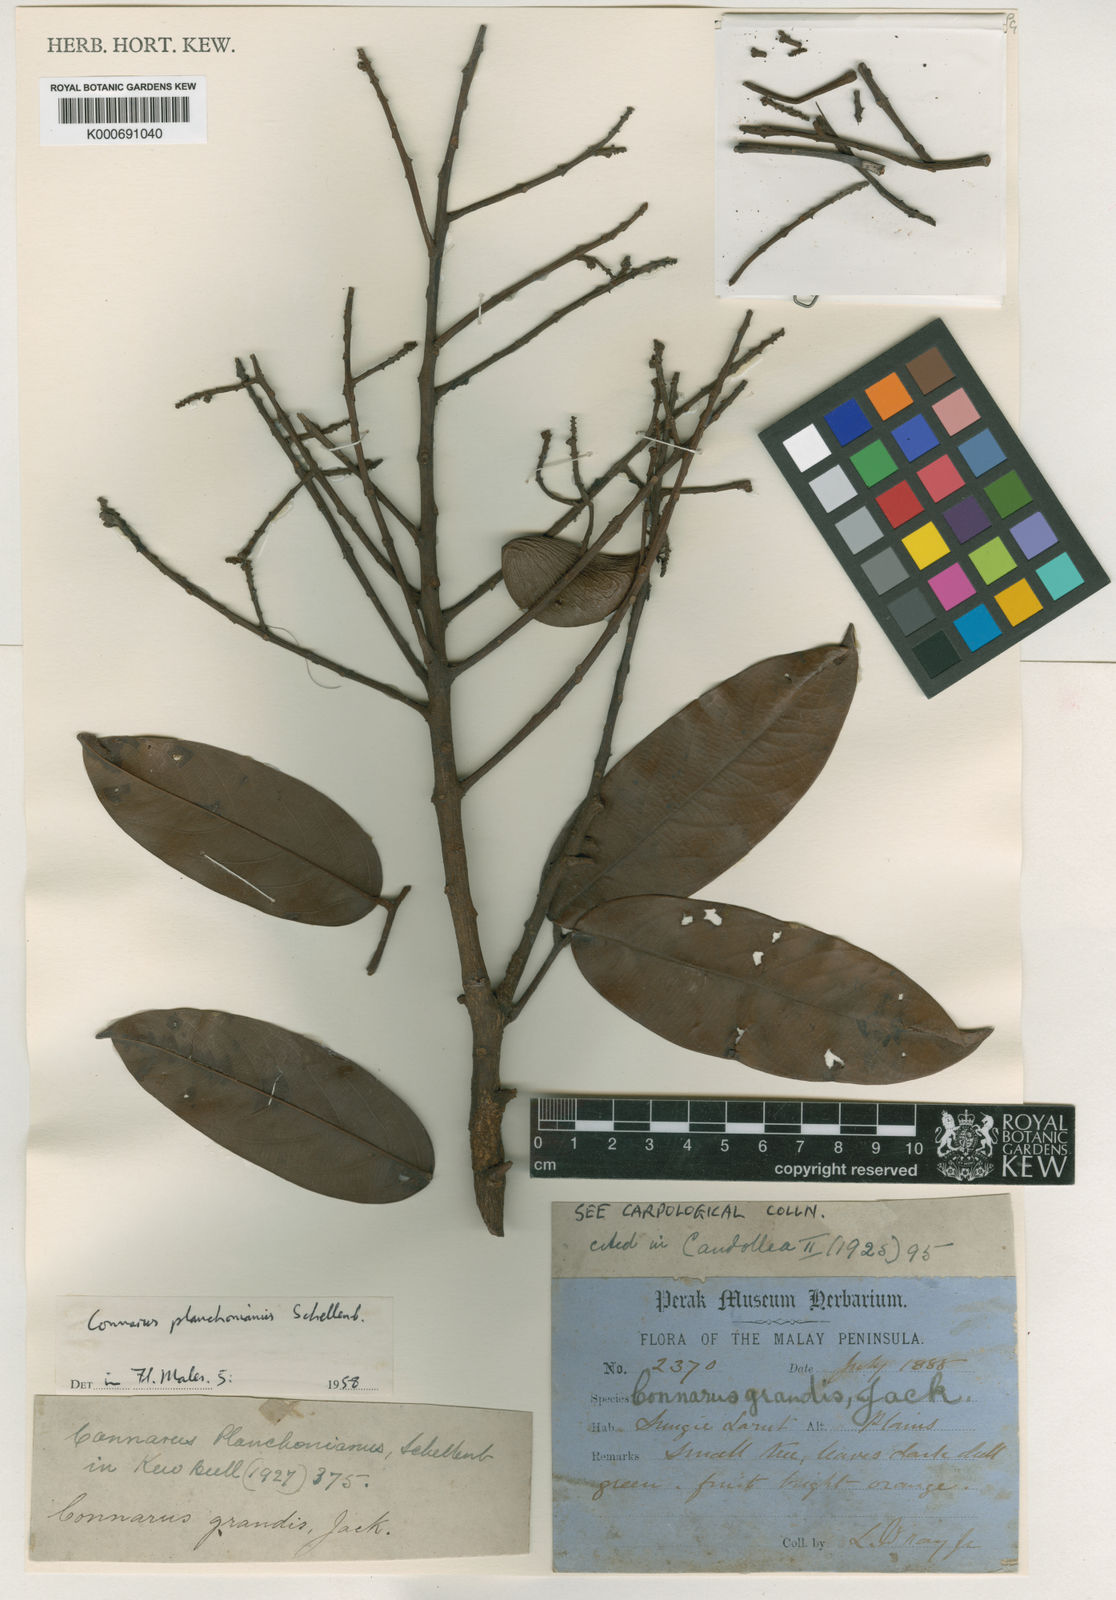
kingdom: Plantae
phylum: Tracheophyta
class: Magnoliopsida
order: Oxalidales
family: Connaraceae
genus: Connarus
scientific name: Connarus planchonianus
